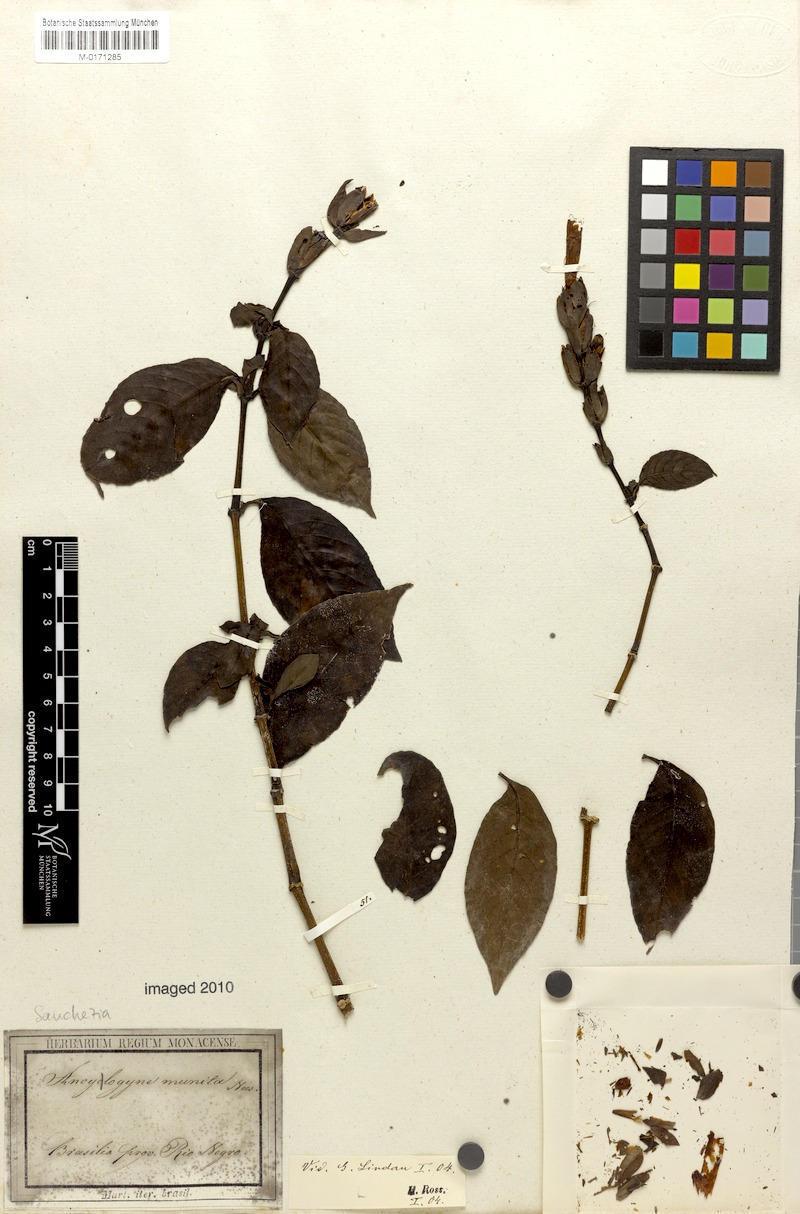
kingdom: Plantae
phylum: Tracheophyta
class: Magnoliopsida
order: Lamiales
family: Acanthaceae
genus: Sanchezia
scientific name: Sanchezia munita
